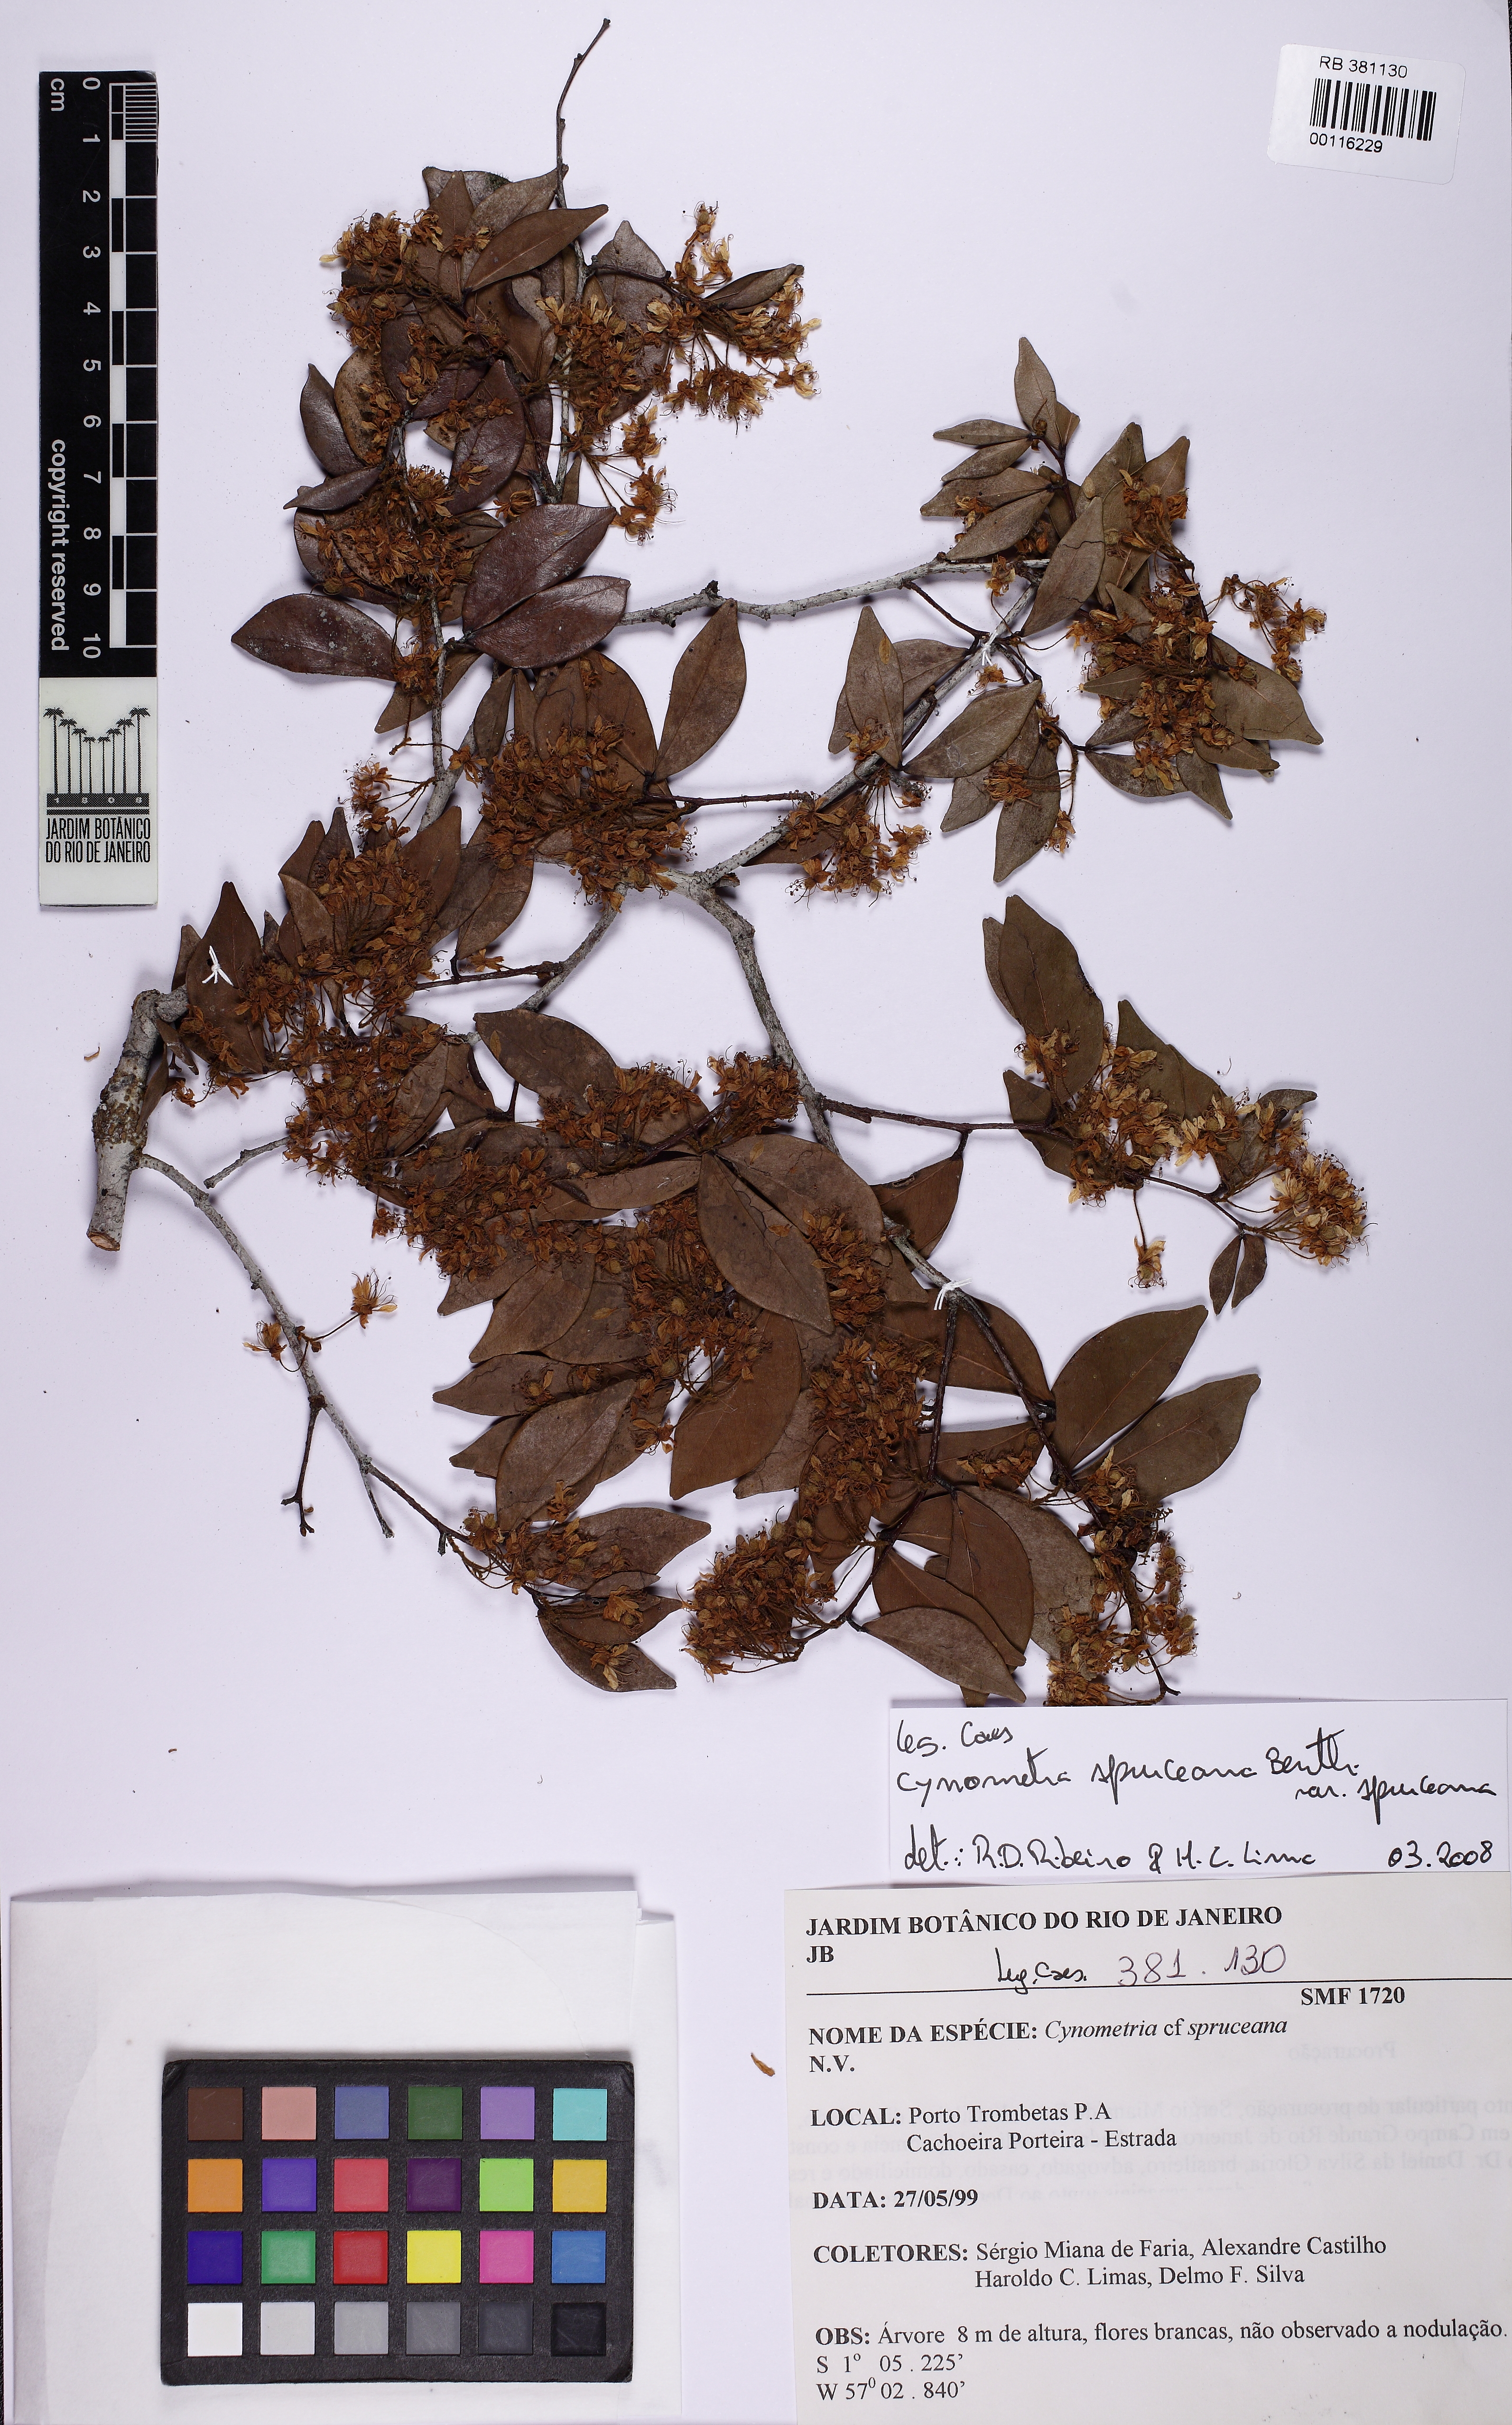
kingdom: Plantae
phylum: Tracheophyta
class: Magnoliopsida
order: Fabales
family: Fabaceae
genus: Cynometra
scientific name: Cynometra spruceana
